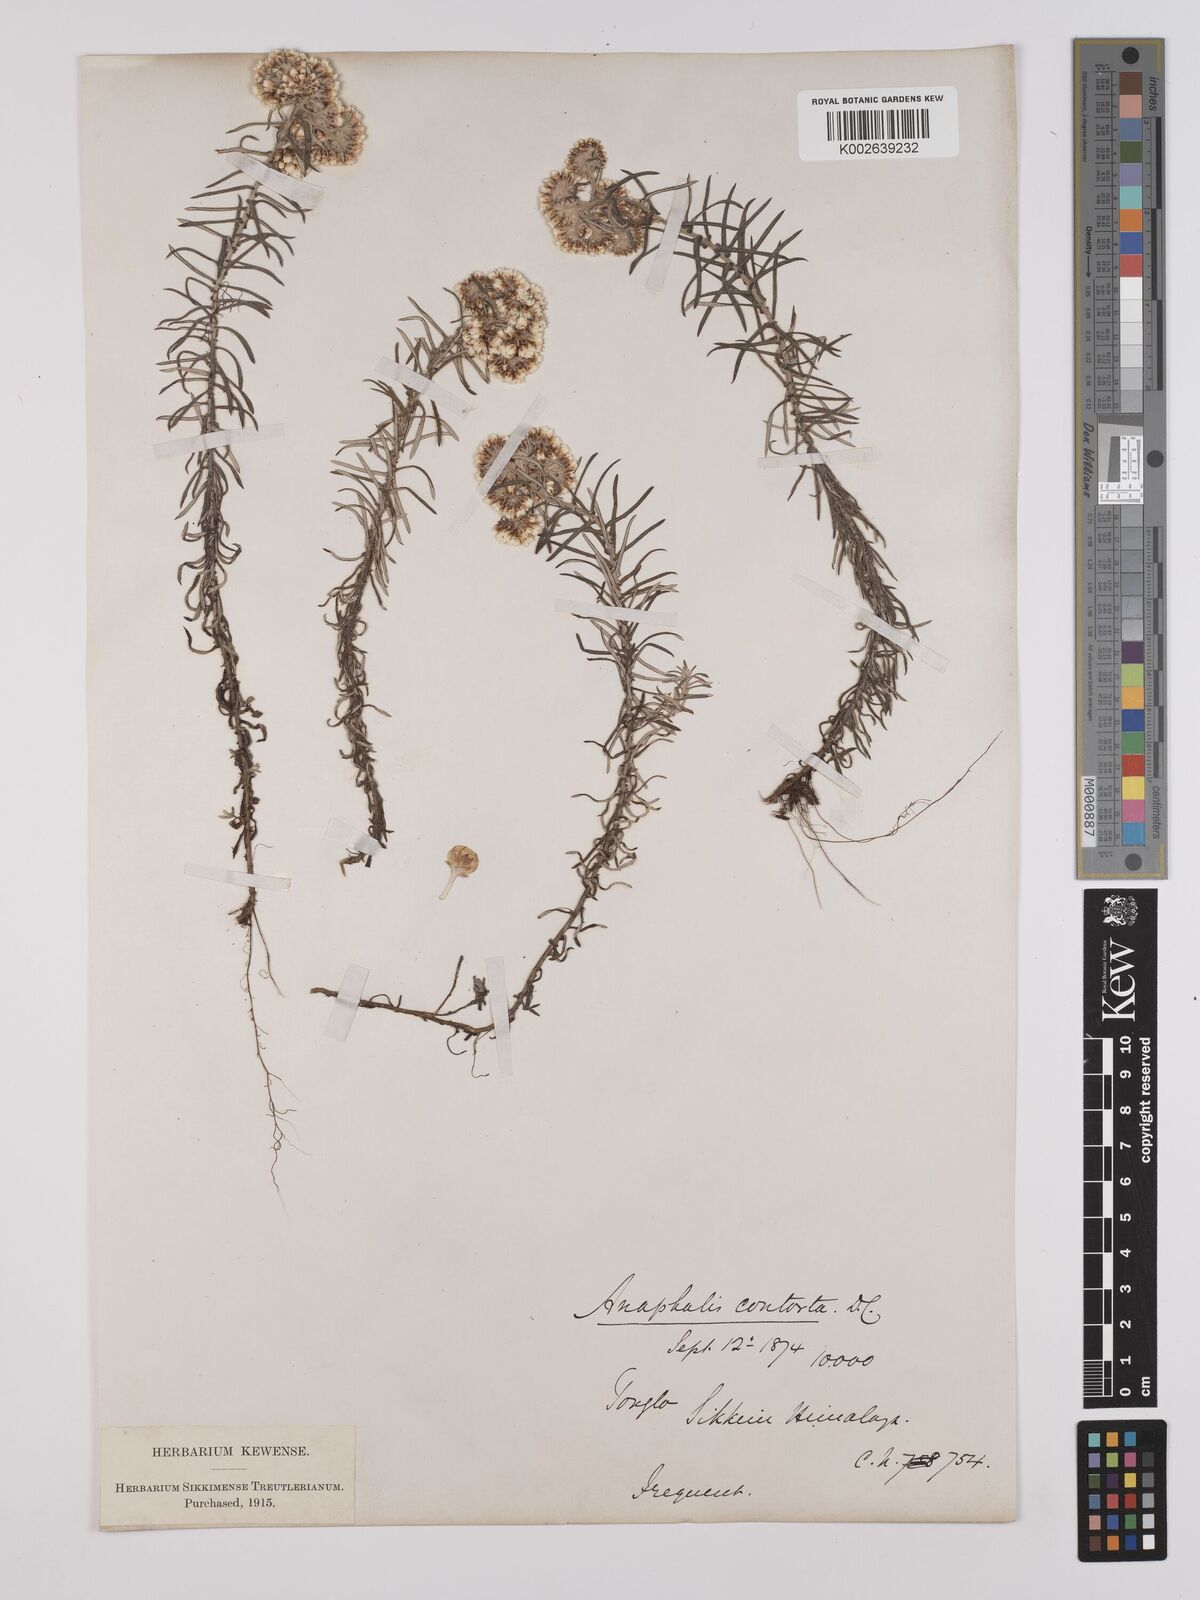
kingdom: Plantae
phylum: Tracheophyta
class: Magnoliopsida
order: Asterales
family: Asteraceae
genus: Anaphalis
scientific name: Anaphalis contorta
